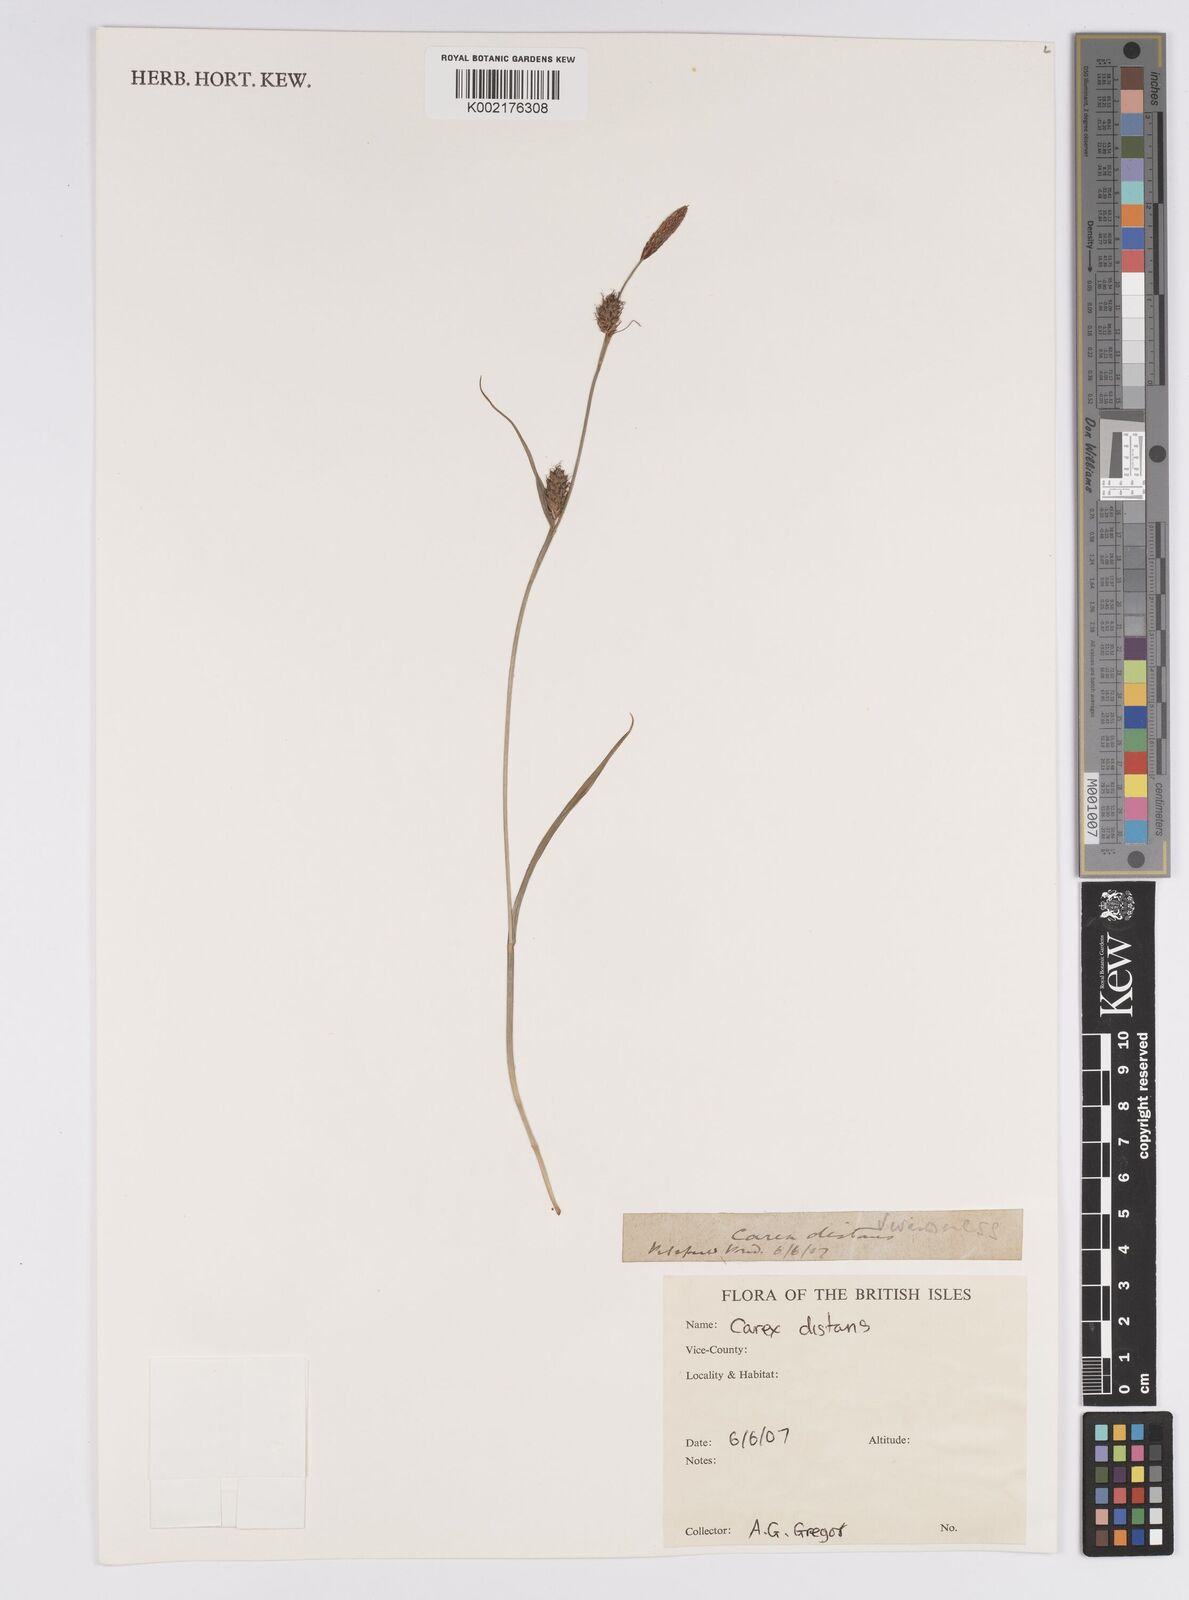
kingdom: Plantae
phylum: Tracheophyta
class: Liliopsida
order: Poales
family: Cyperaceae
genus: Carex
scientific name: Carex distans
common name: Distant sedge
